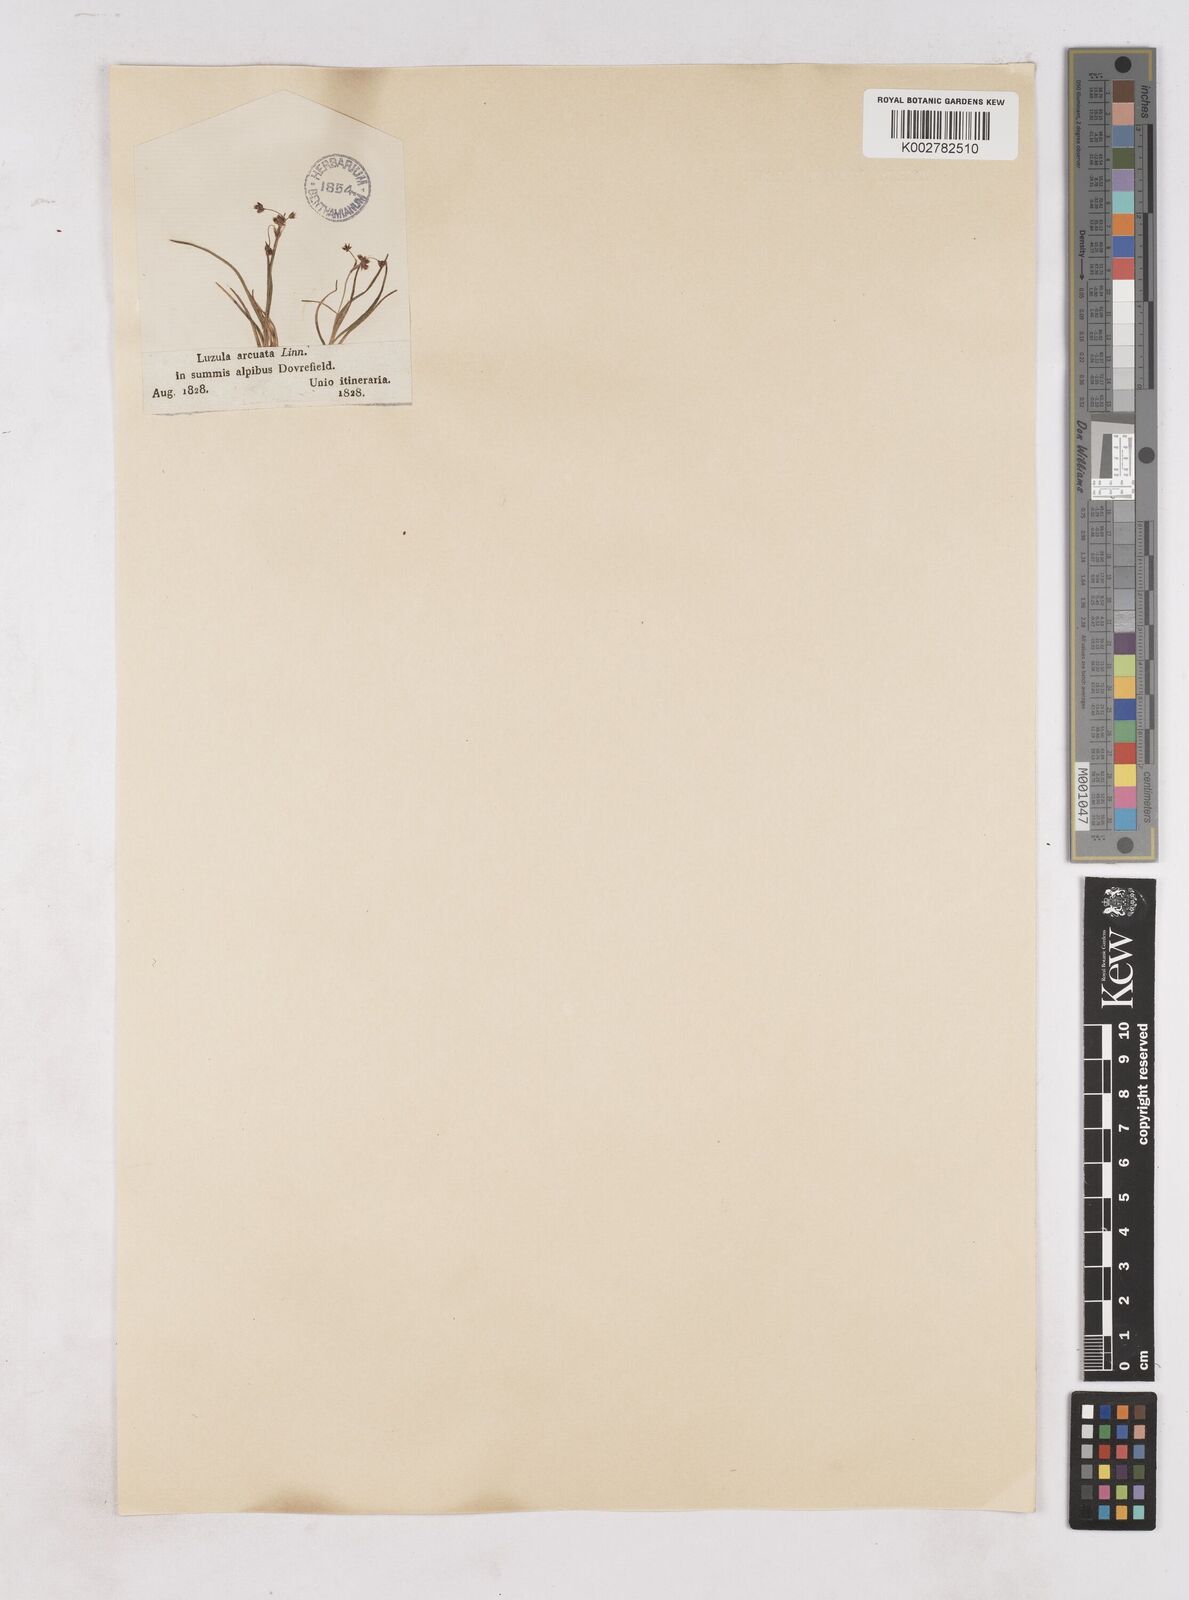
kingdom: Plantae
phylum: Tracheophyta
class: Liliopsida
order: Poales
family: Juncaceae
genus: Luzula
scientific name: Luzula arcuata
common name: Curved wood-rush
